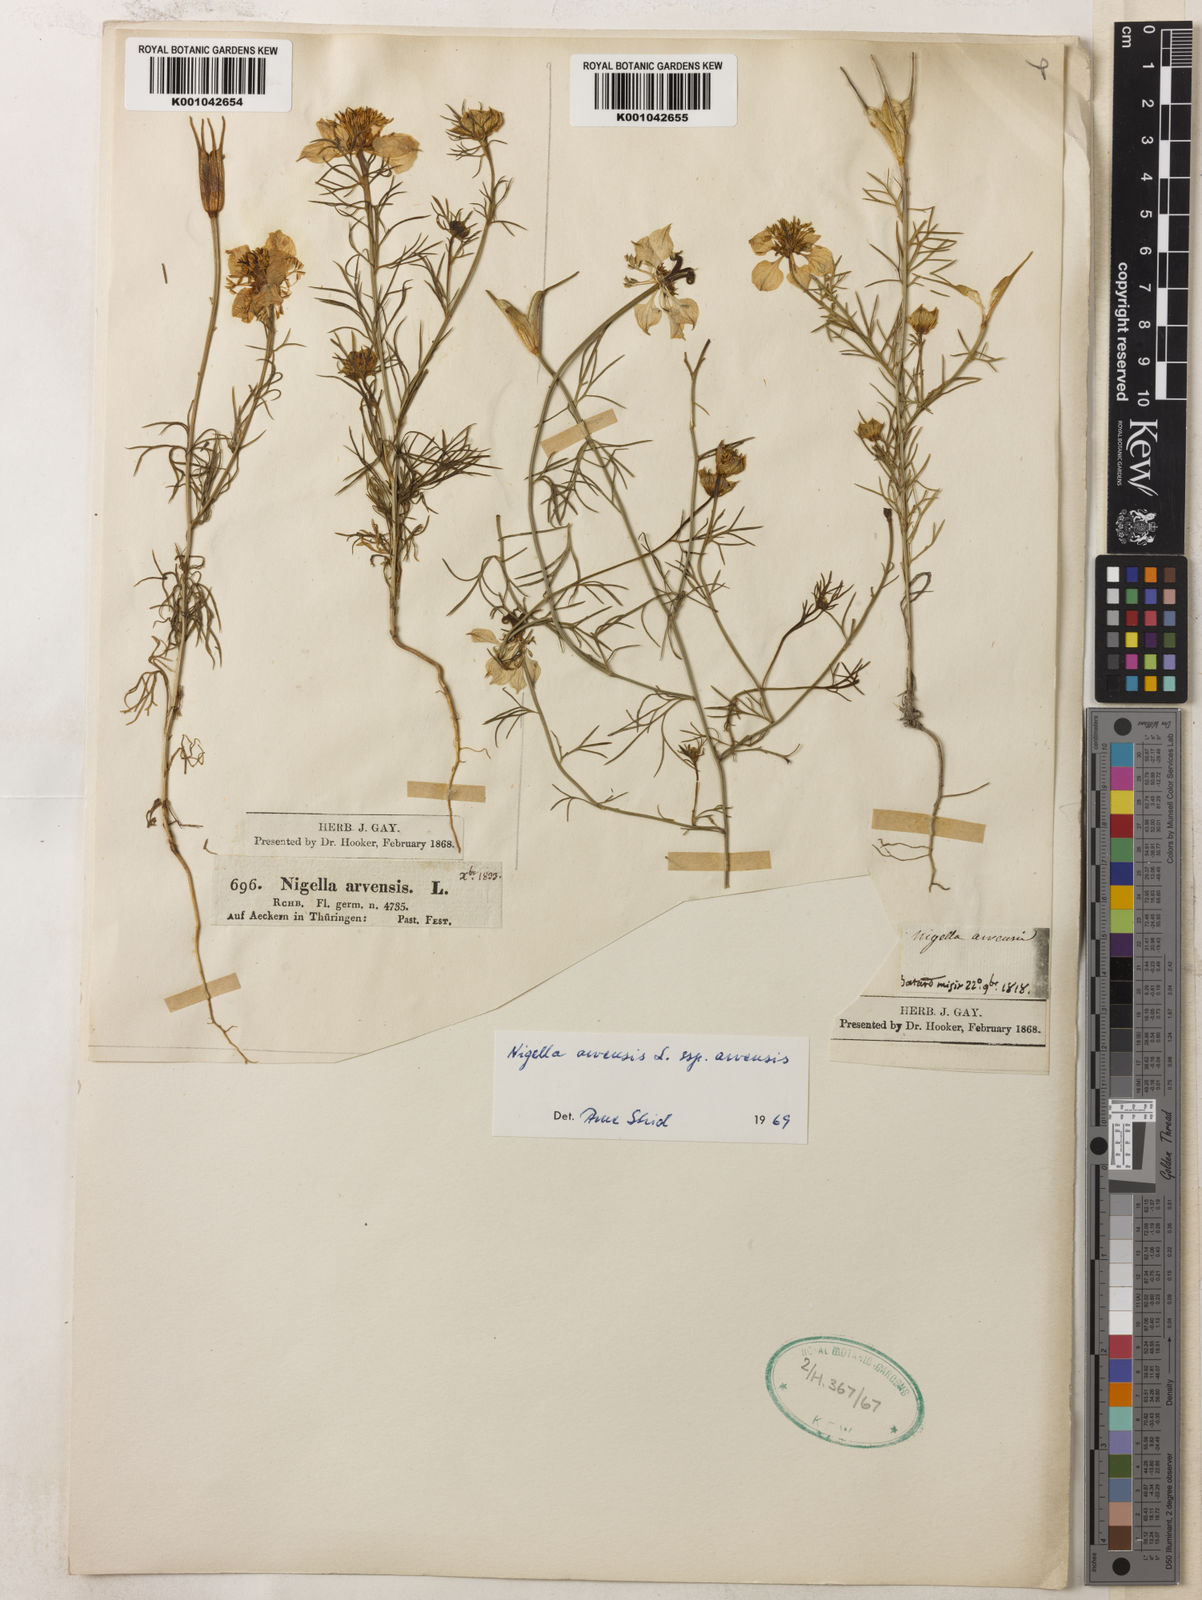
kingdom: Plantae
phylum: Tracheophyta
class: Magnoliopsida
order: Ranunculales
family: Ranunculaceae
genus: Nigella
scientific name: Nigella arvensis
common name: Wild fennel-flower
